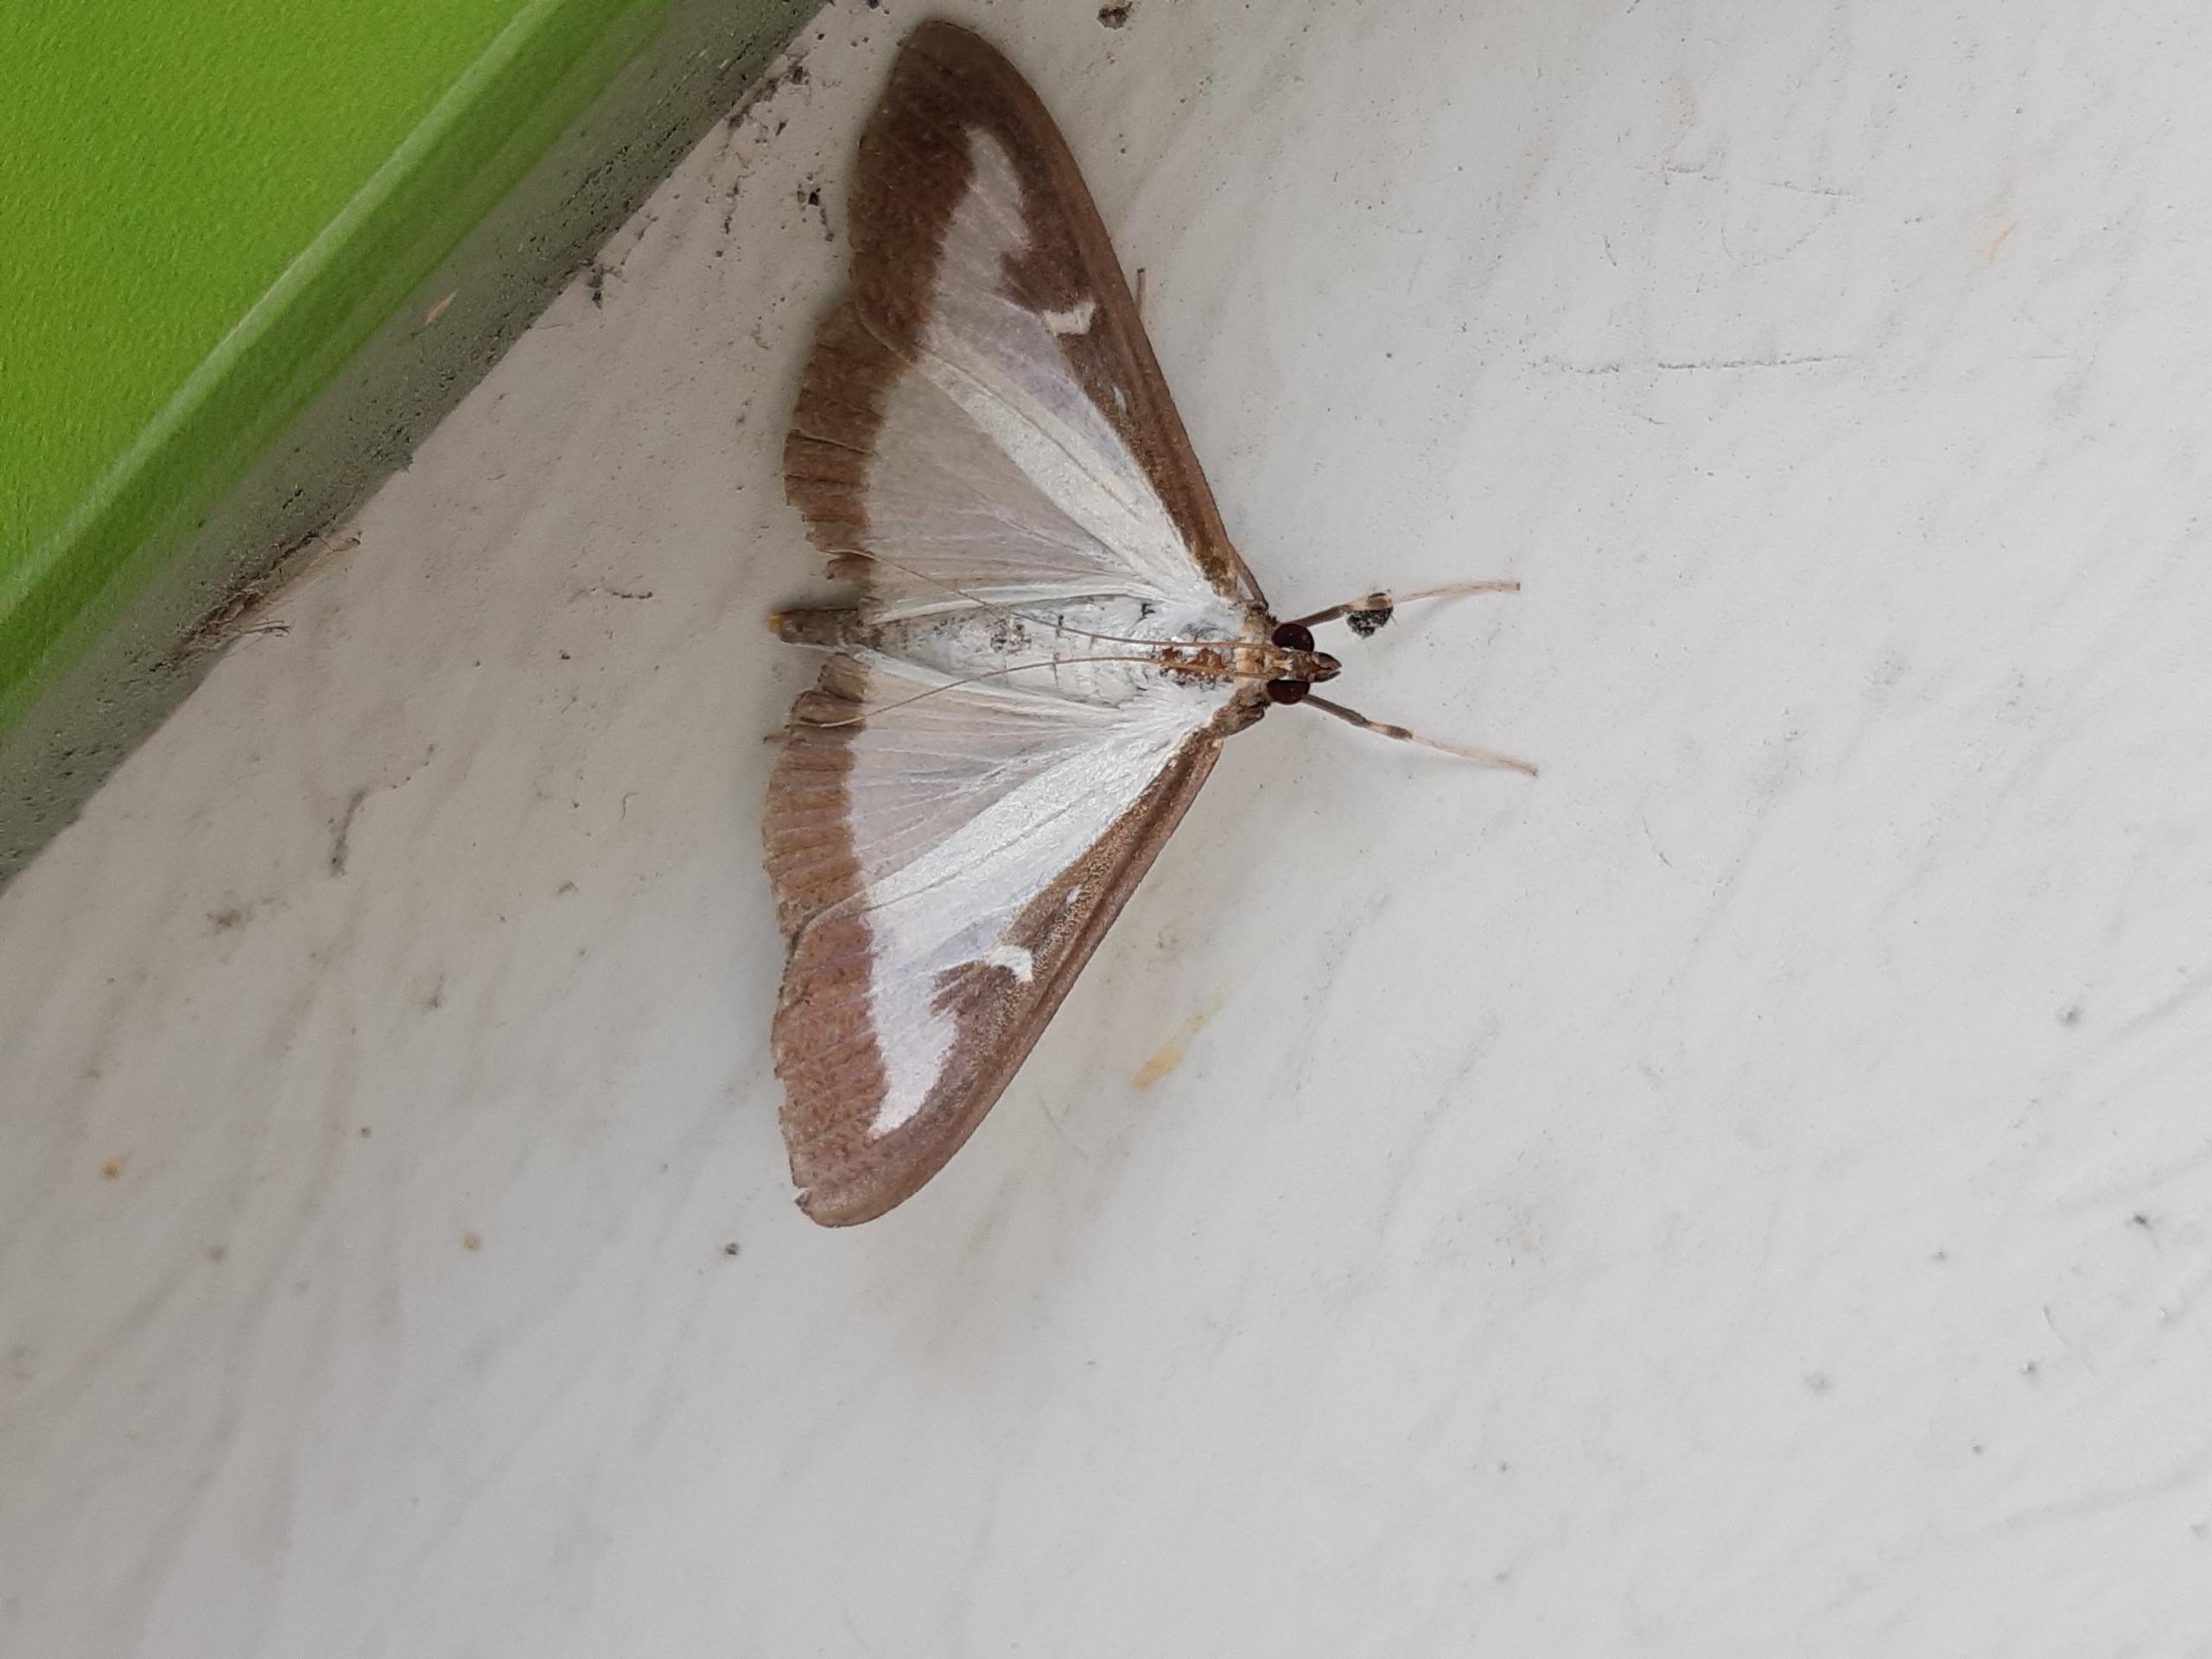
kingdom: Animalia
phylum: Arthropoda
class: Insecta
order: Lepidoptera
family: Crambidae
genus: Cydalima
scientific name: Cydalima perspectalis
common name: Buksbomhalvmøl
